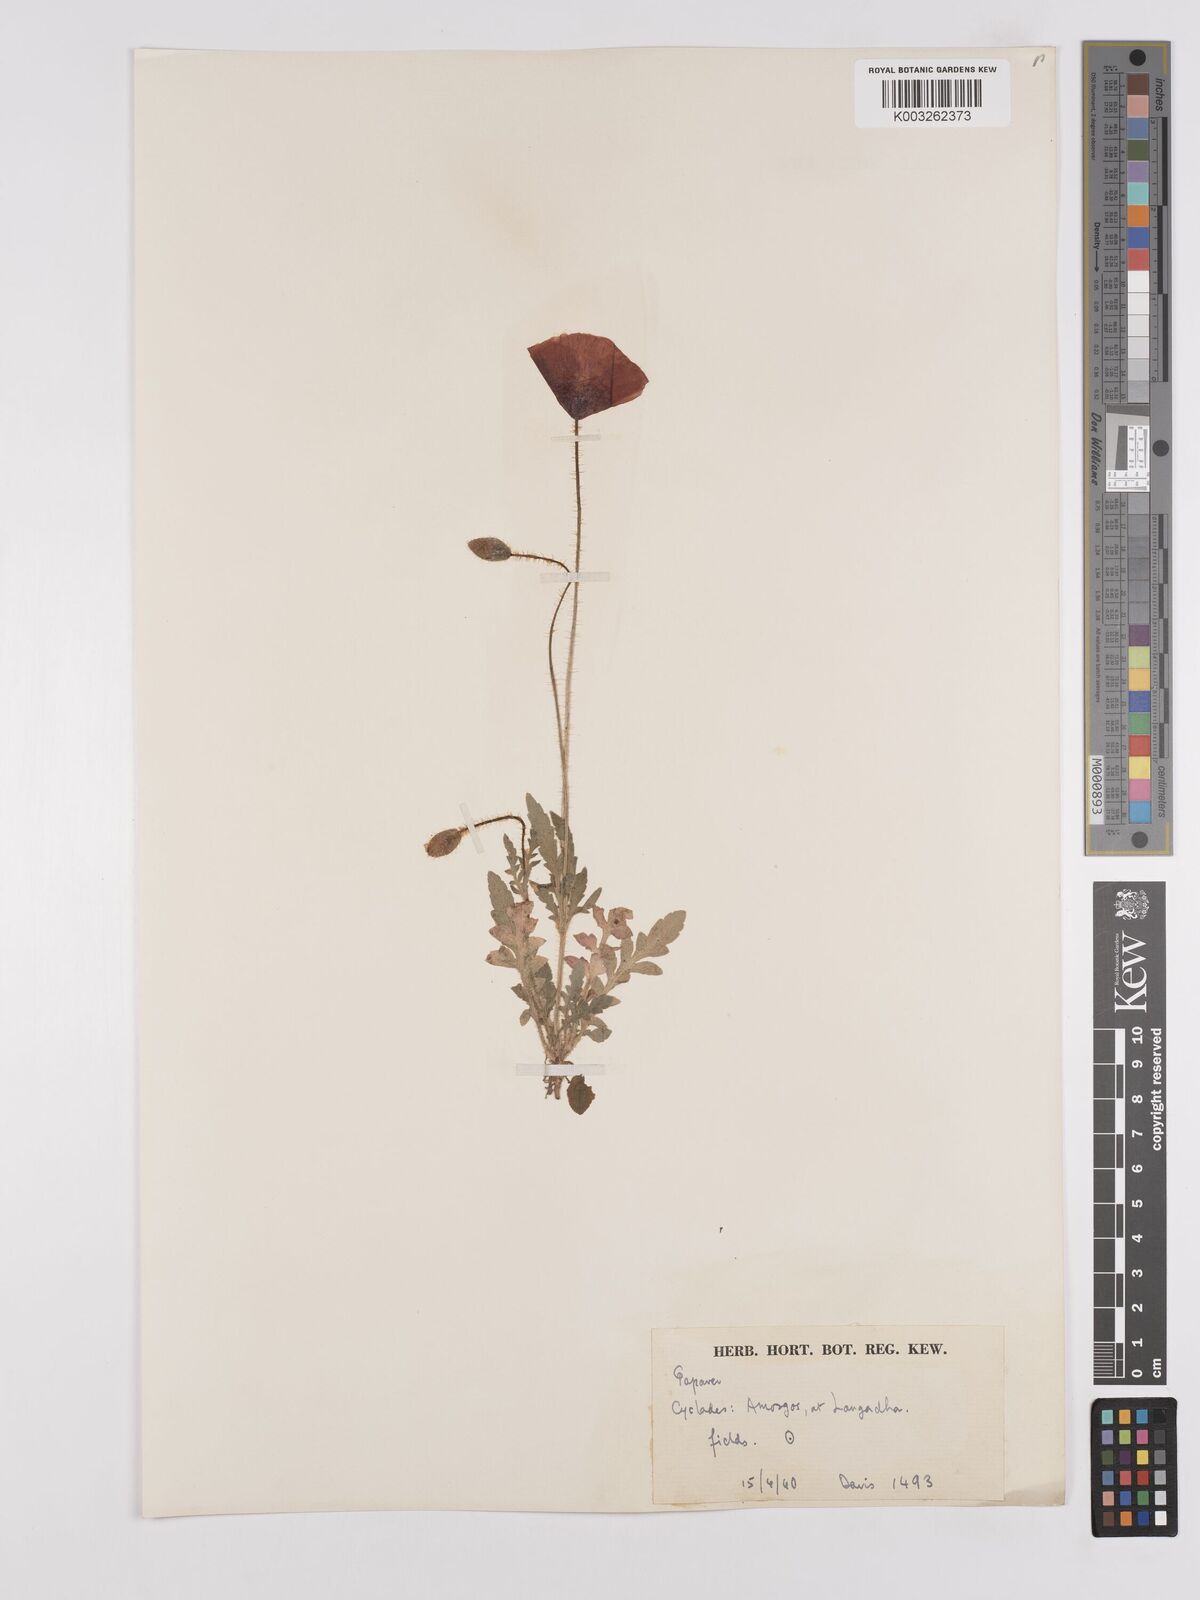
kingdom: Plantae
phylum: Tracheophyta
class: Magnoliopsida
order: Ranunculales
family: Papaveraceae
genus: Papaver
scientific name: Papaver rhoeas
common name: Corn poppy
